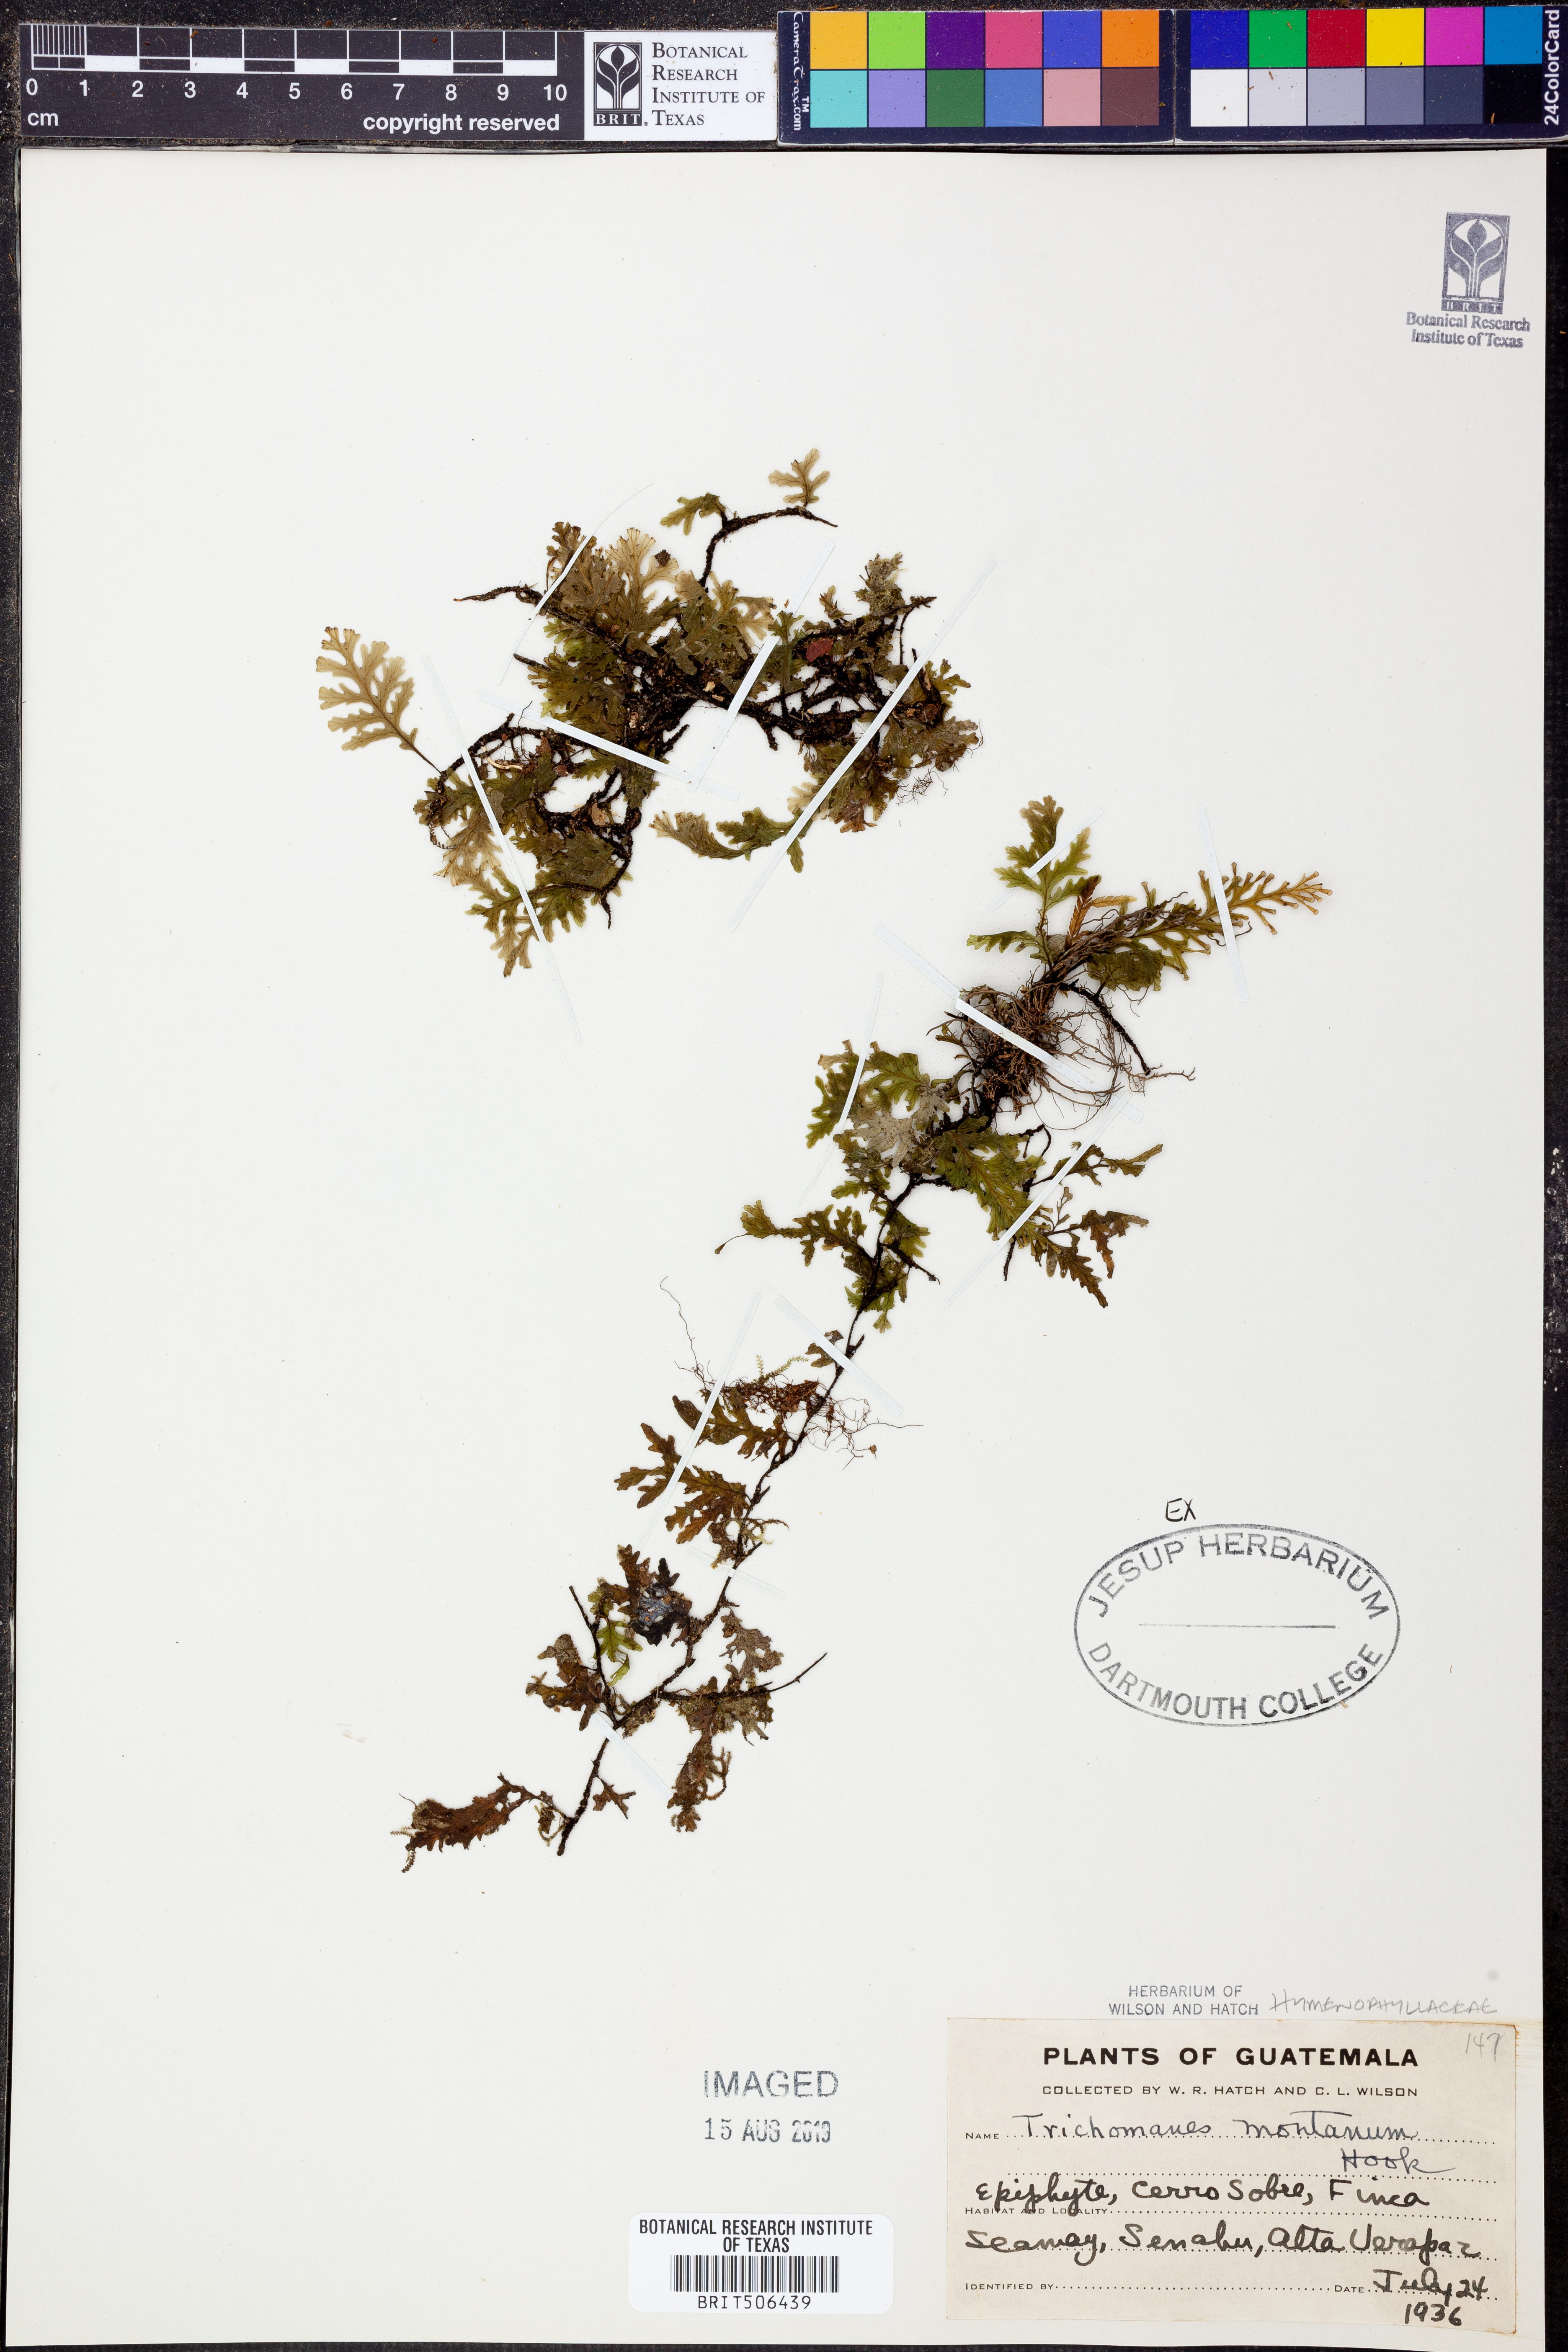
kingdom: Plantae
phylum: Tracheophyta
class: Polypodiopsida
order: Hymenophyllales
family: Hymenophyllaceae
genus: Didymoglossum
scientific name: Didymoglossum
